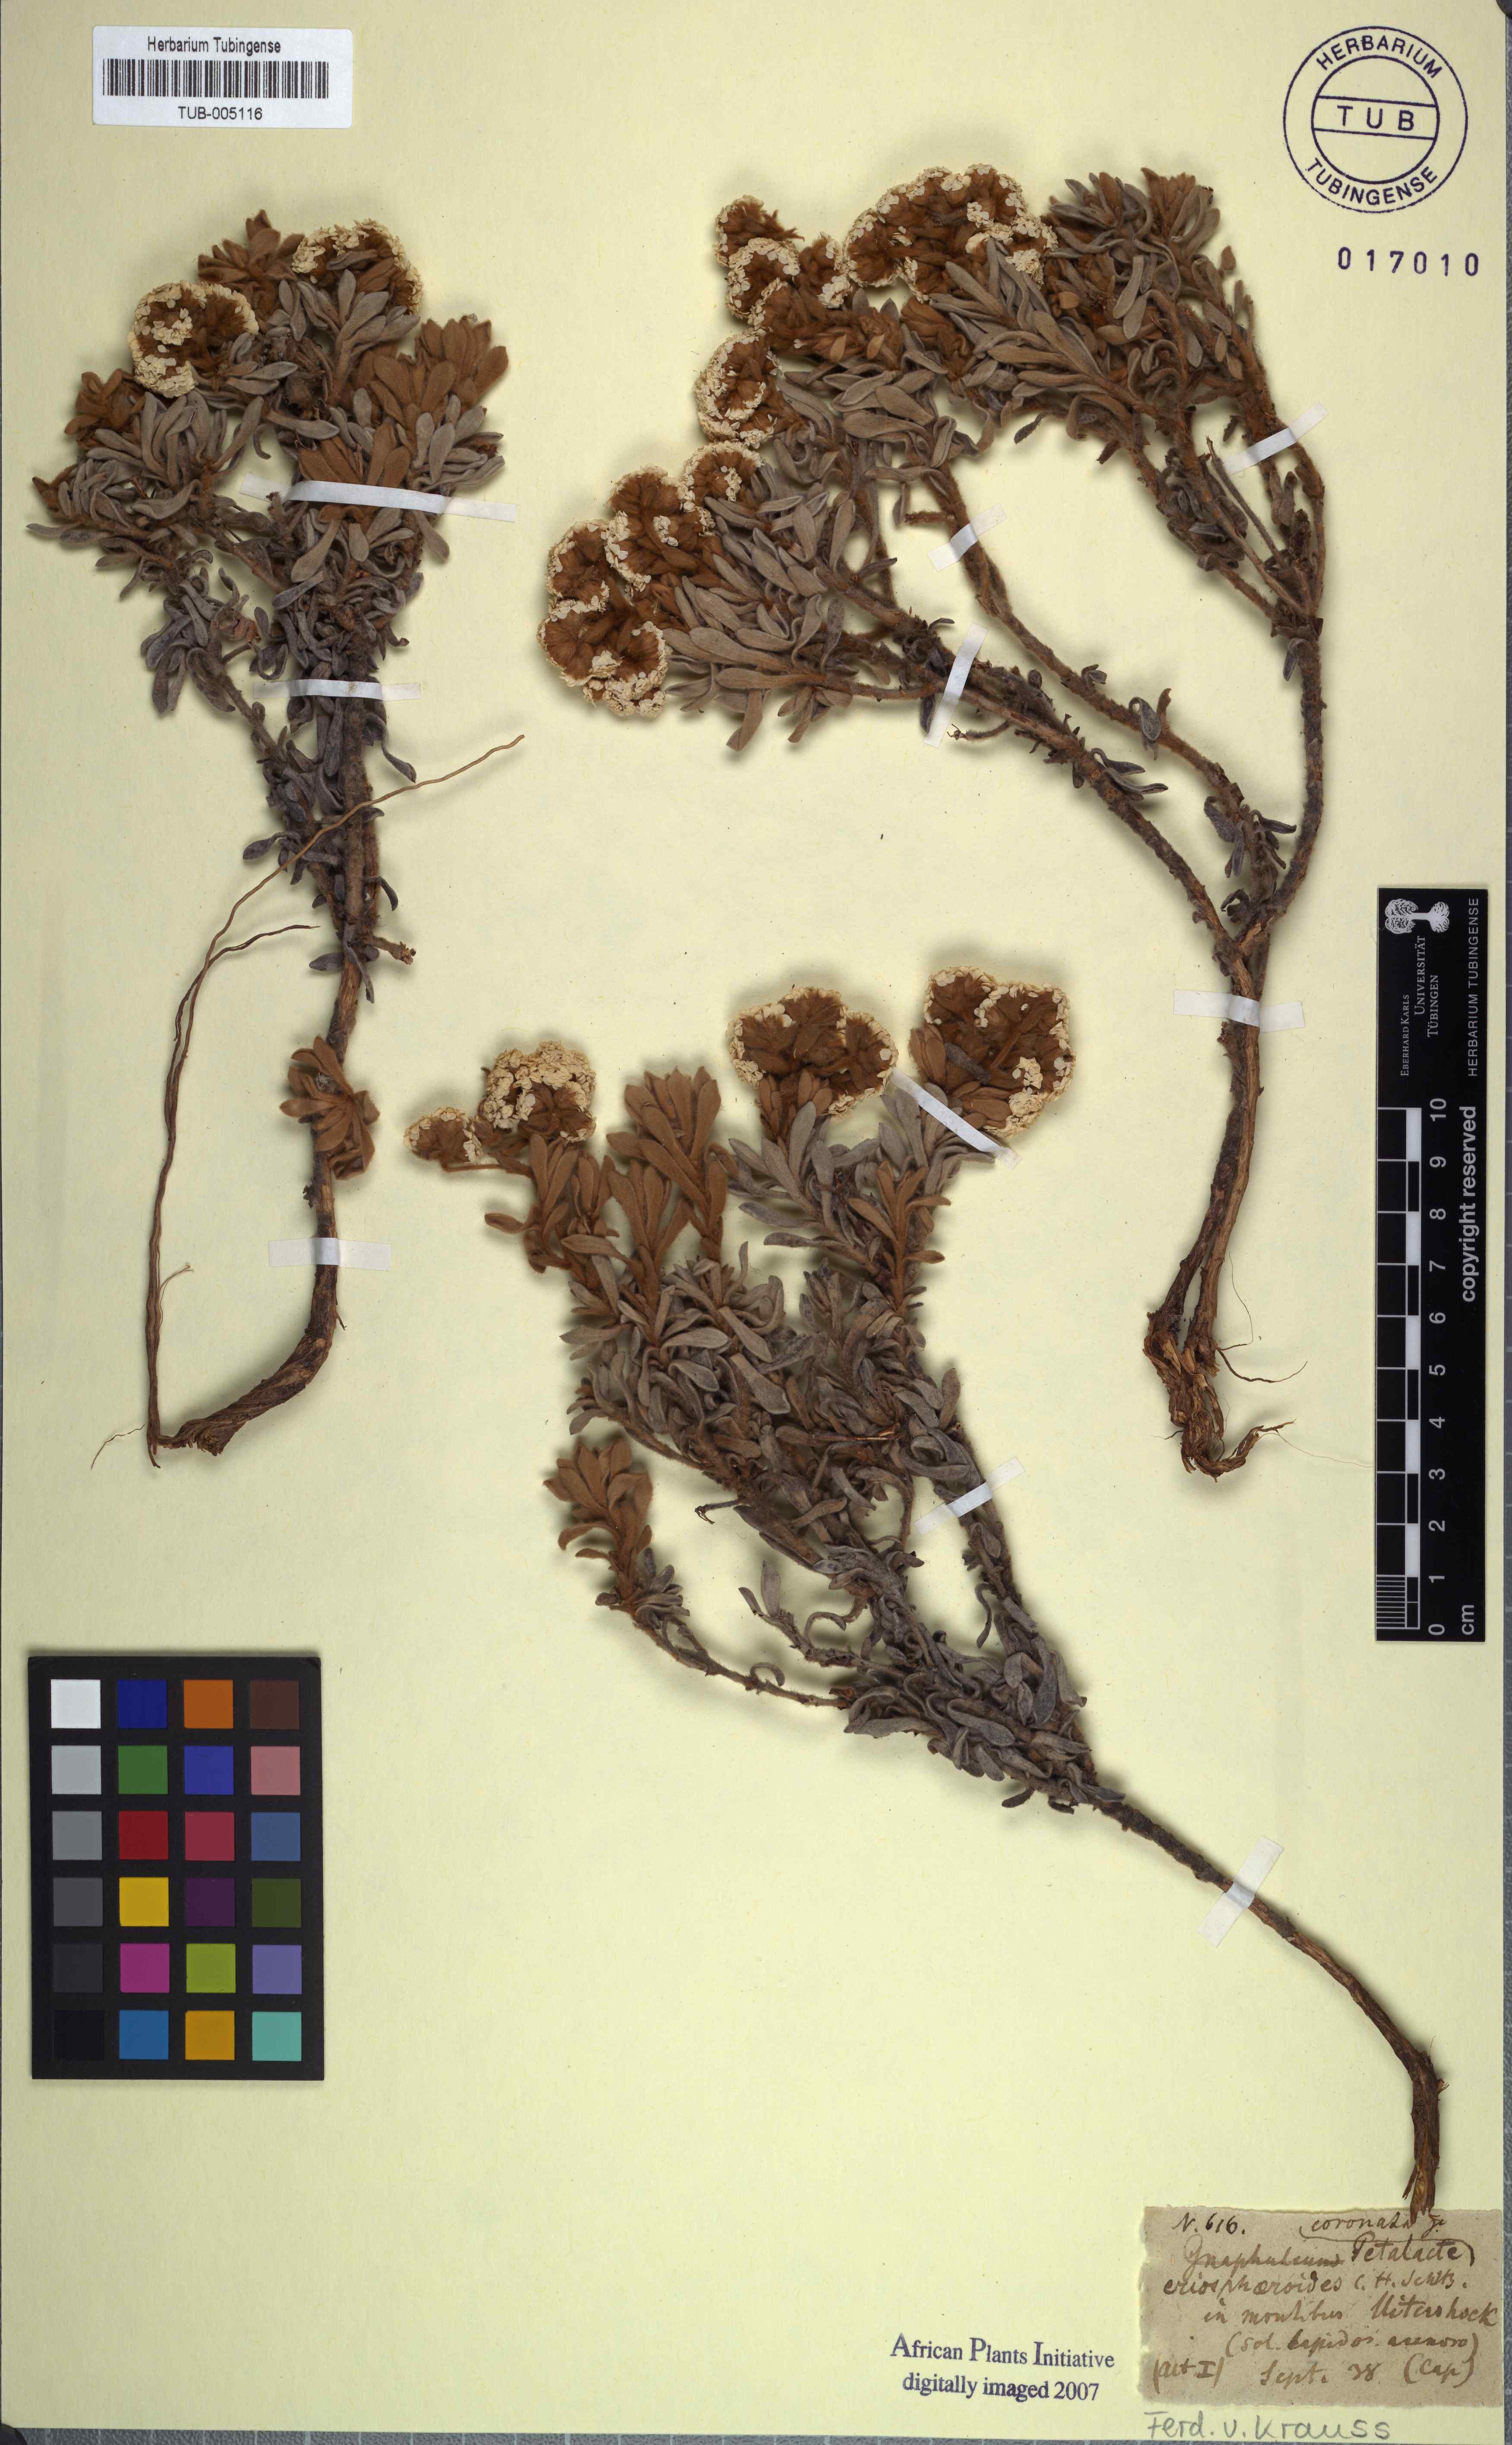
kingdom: Plantae
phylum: Tracheophyta
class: Magnoliopsida
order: Asterales
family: Asteraceae
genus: Petalacte
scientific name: Petalacte coronata
